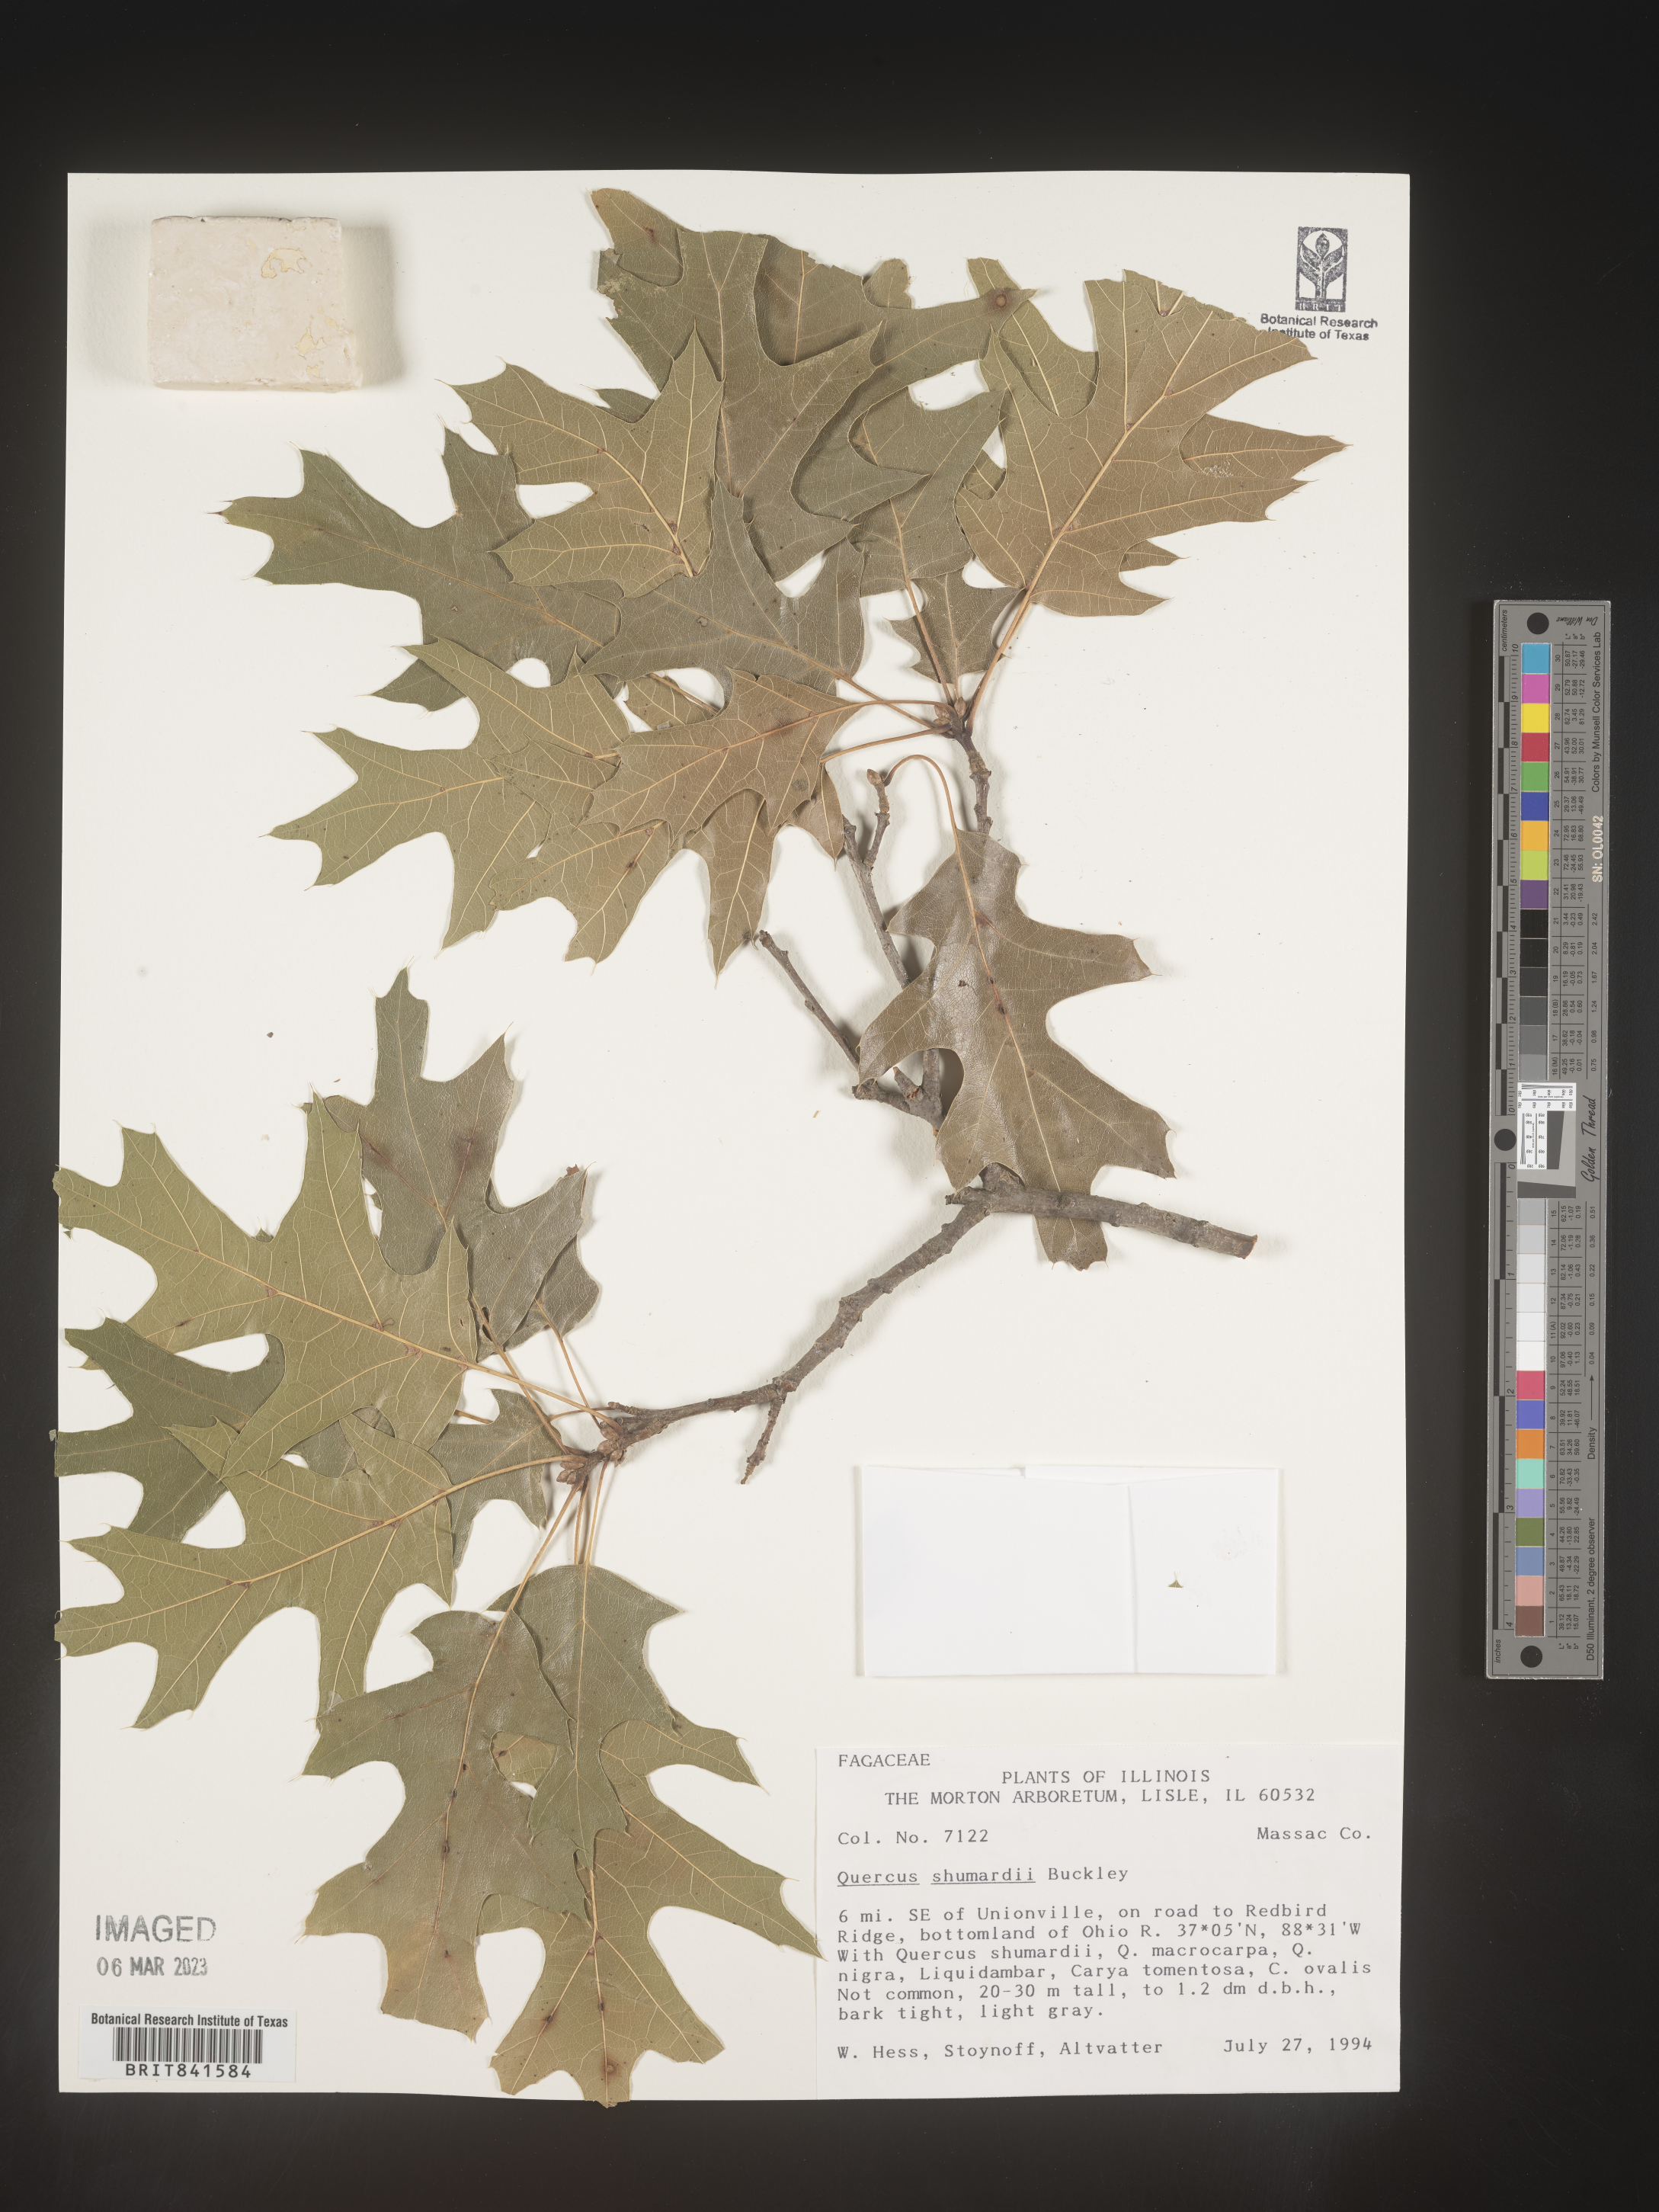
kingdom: Plantae
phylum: Tracheophyta
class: Magnoliopsida
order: Fagales
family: Fagaceae
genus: Quercus
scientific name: Quercus shumardii
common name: Shumard oak
